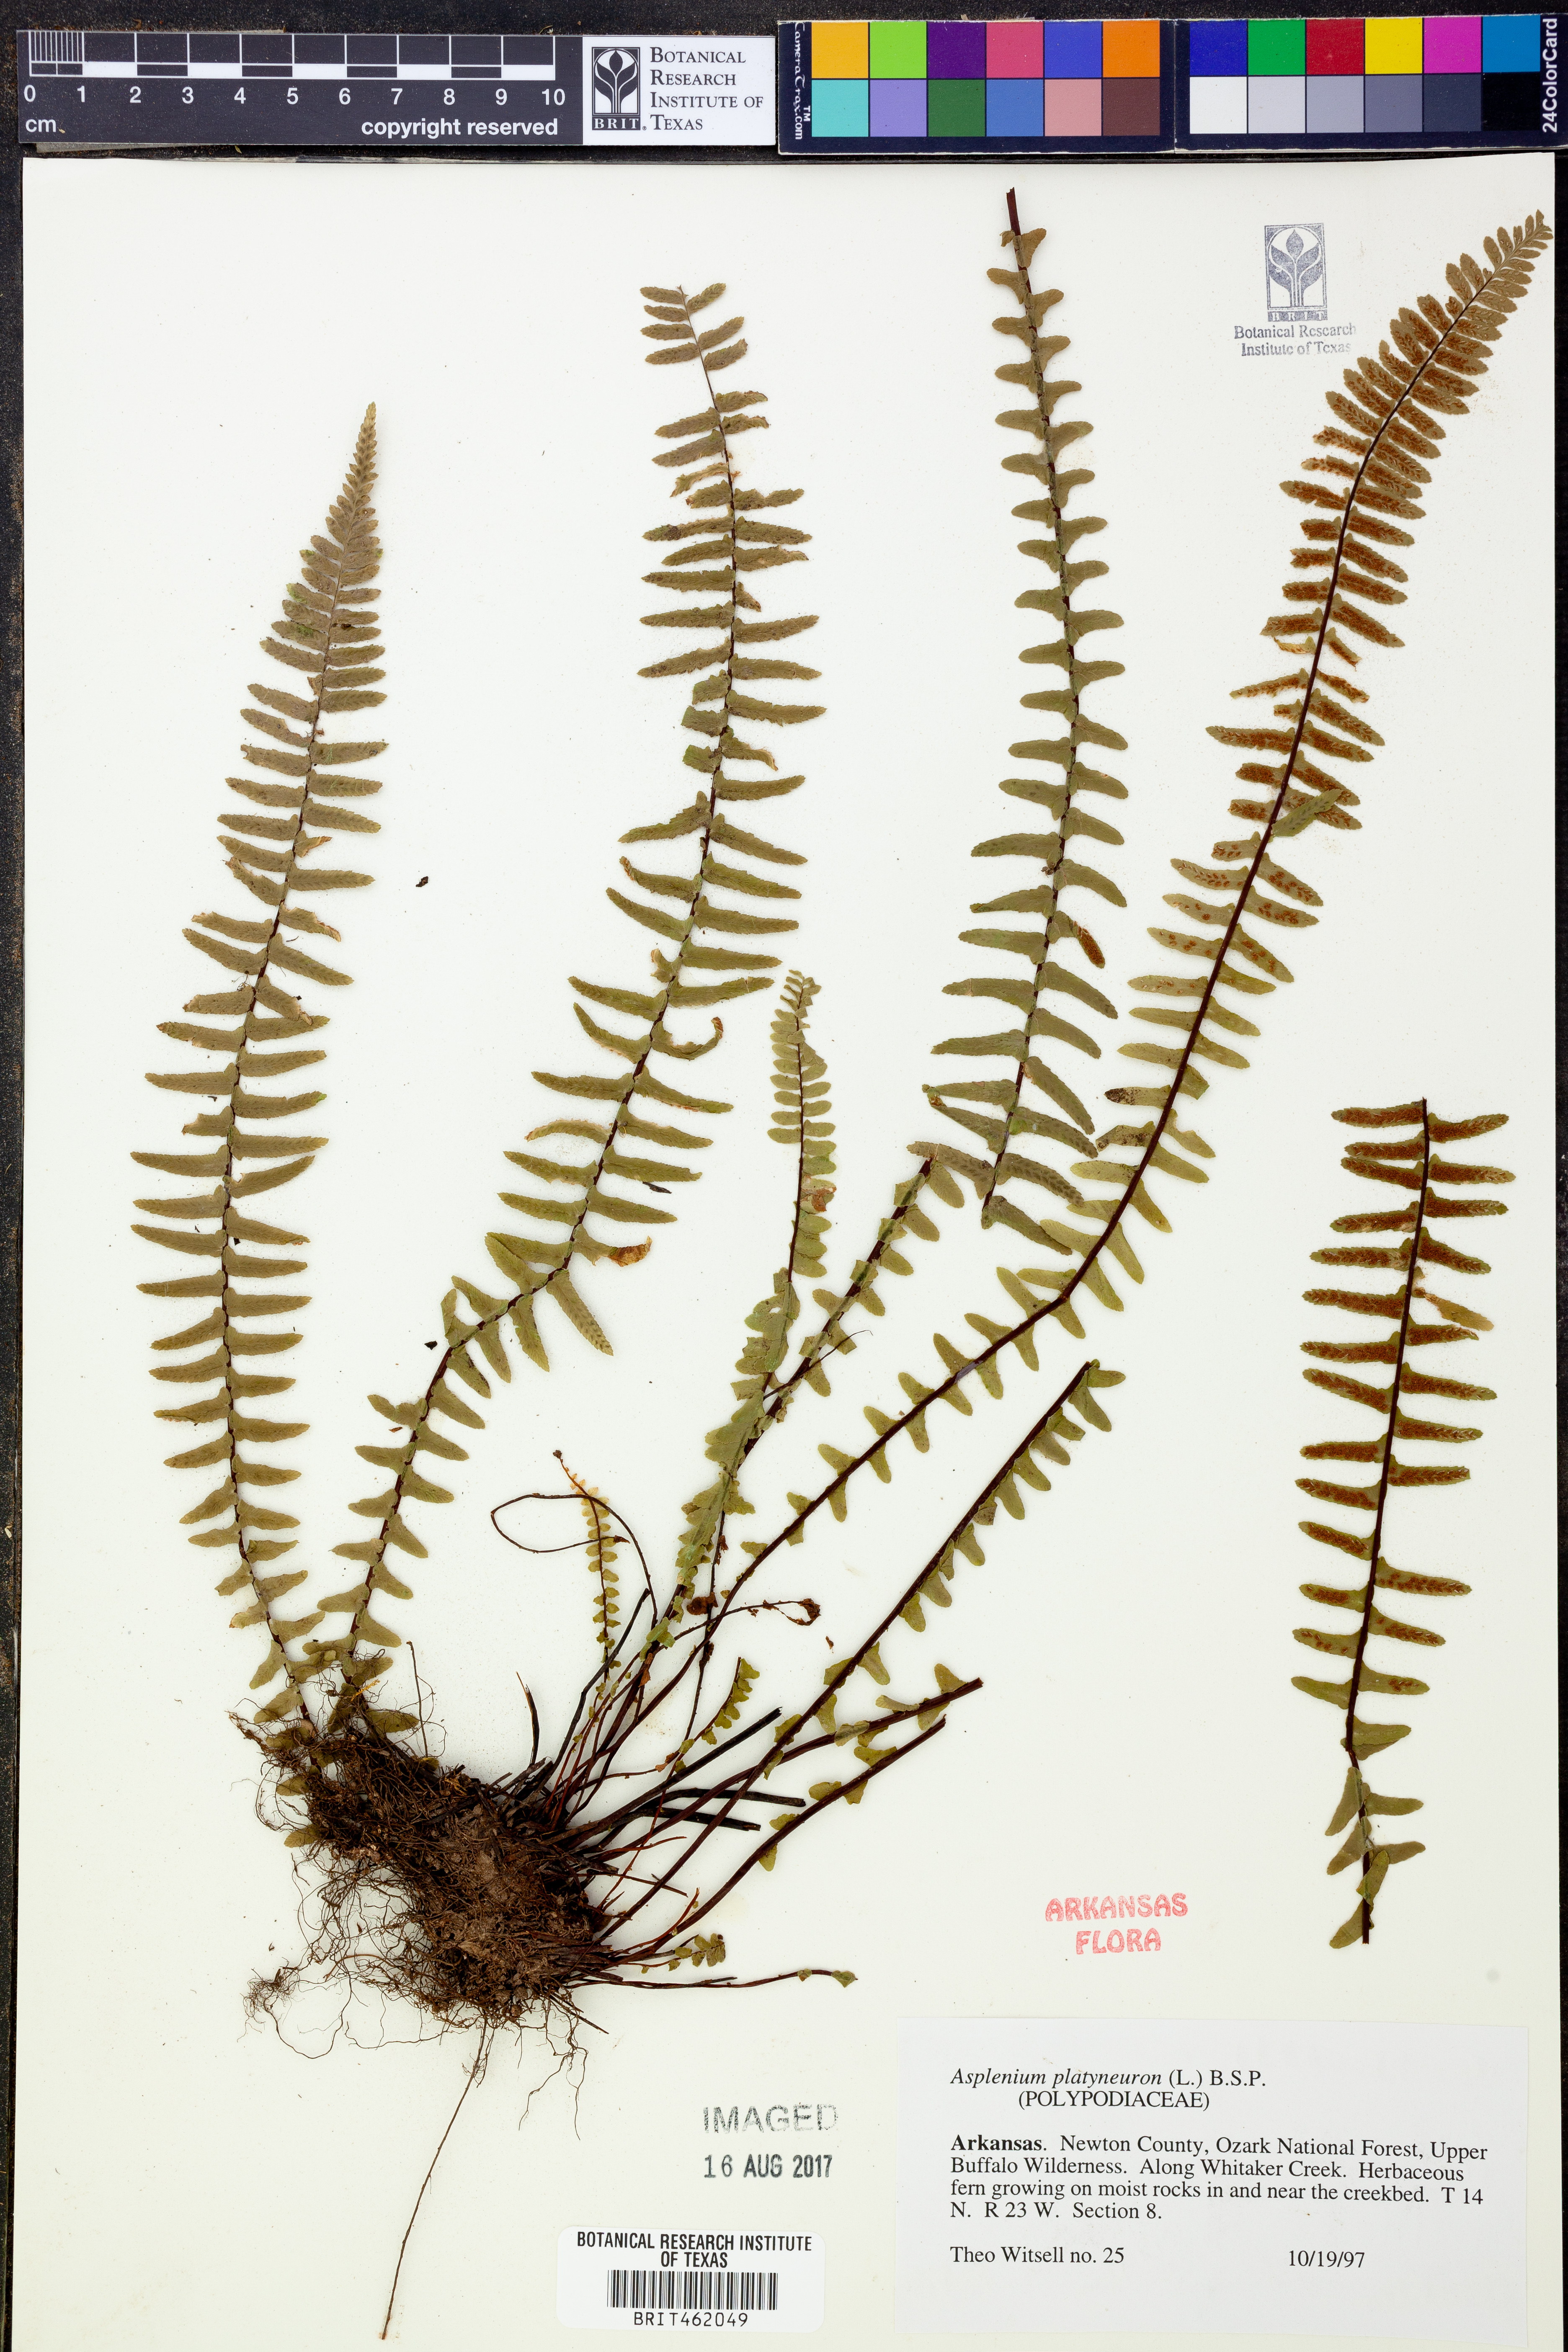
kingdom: Plantae
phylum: Tracheophyta
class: Polypodiopsida
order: Polypodiales
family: Aspleniaceae
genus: Asplenium
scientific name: Asplenium platyneuron
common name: Ebony spleenwort
